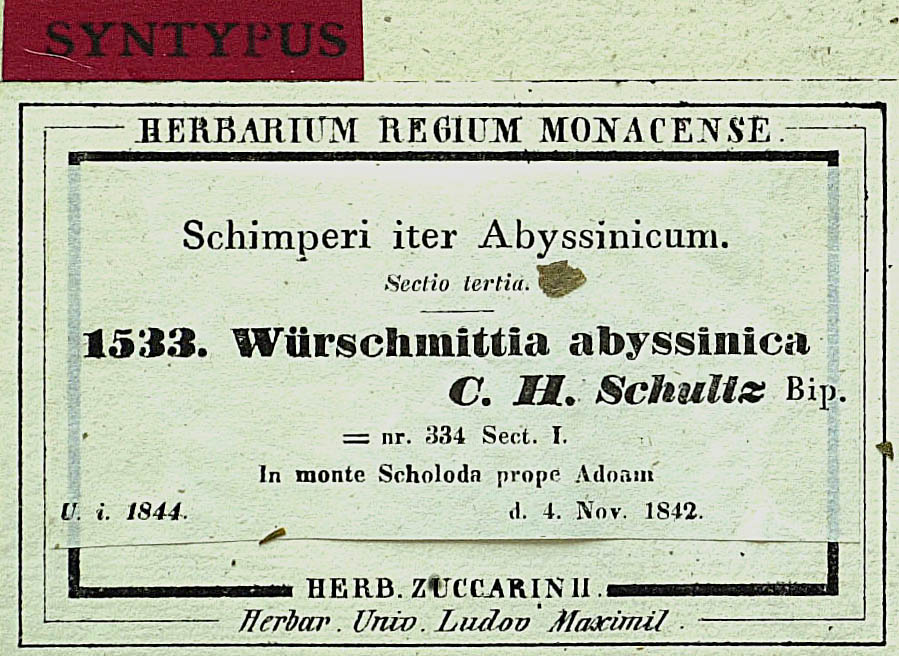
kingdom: Plantae
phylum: Tracheophyta
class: Magnoliopsida
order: Asterales
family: Asteraceae
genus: Lipotriche
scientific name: Lipotriche abyssinica
